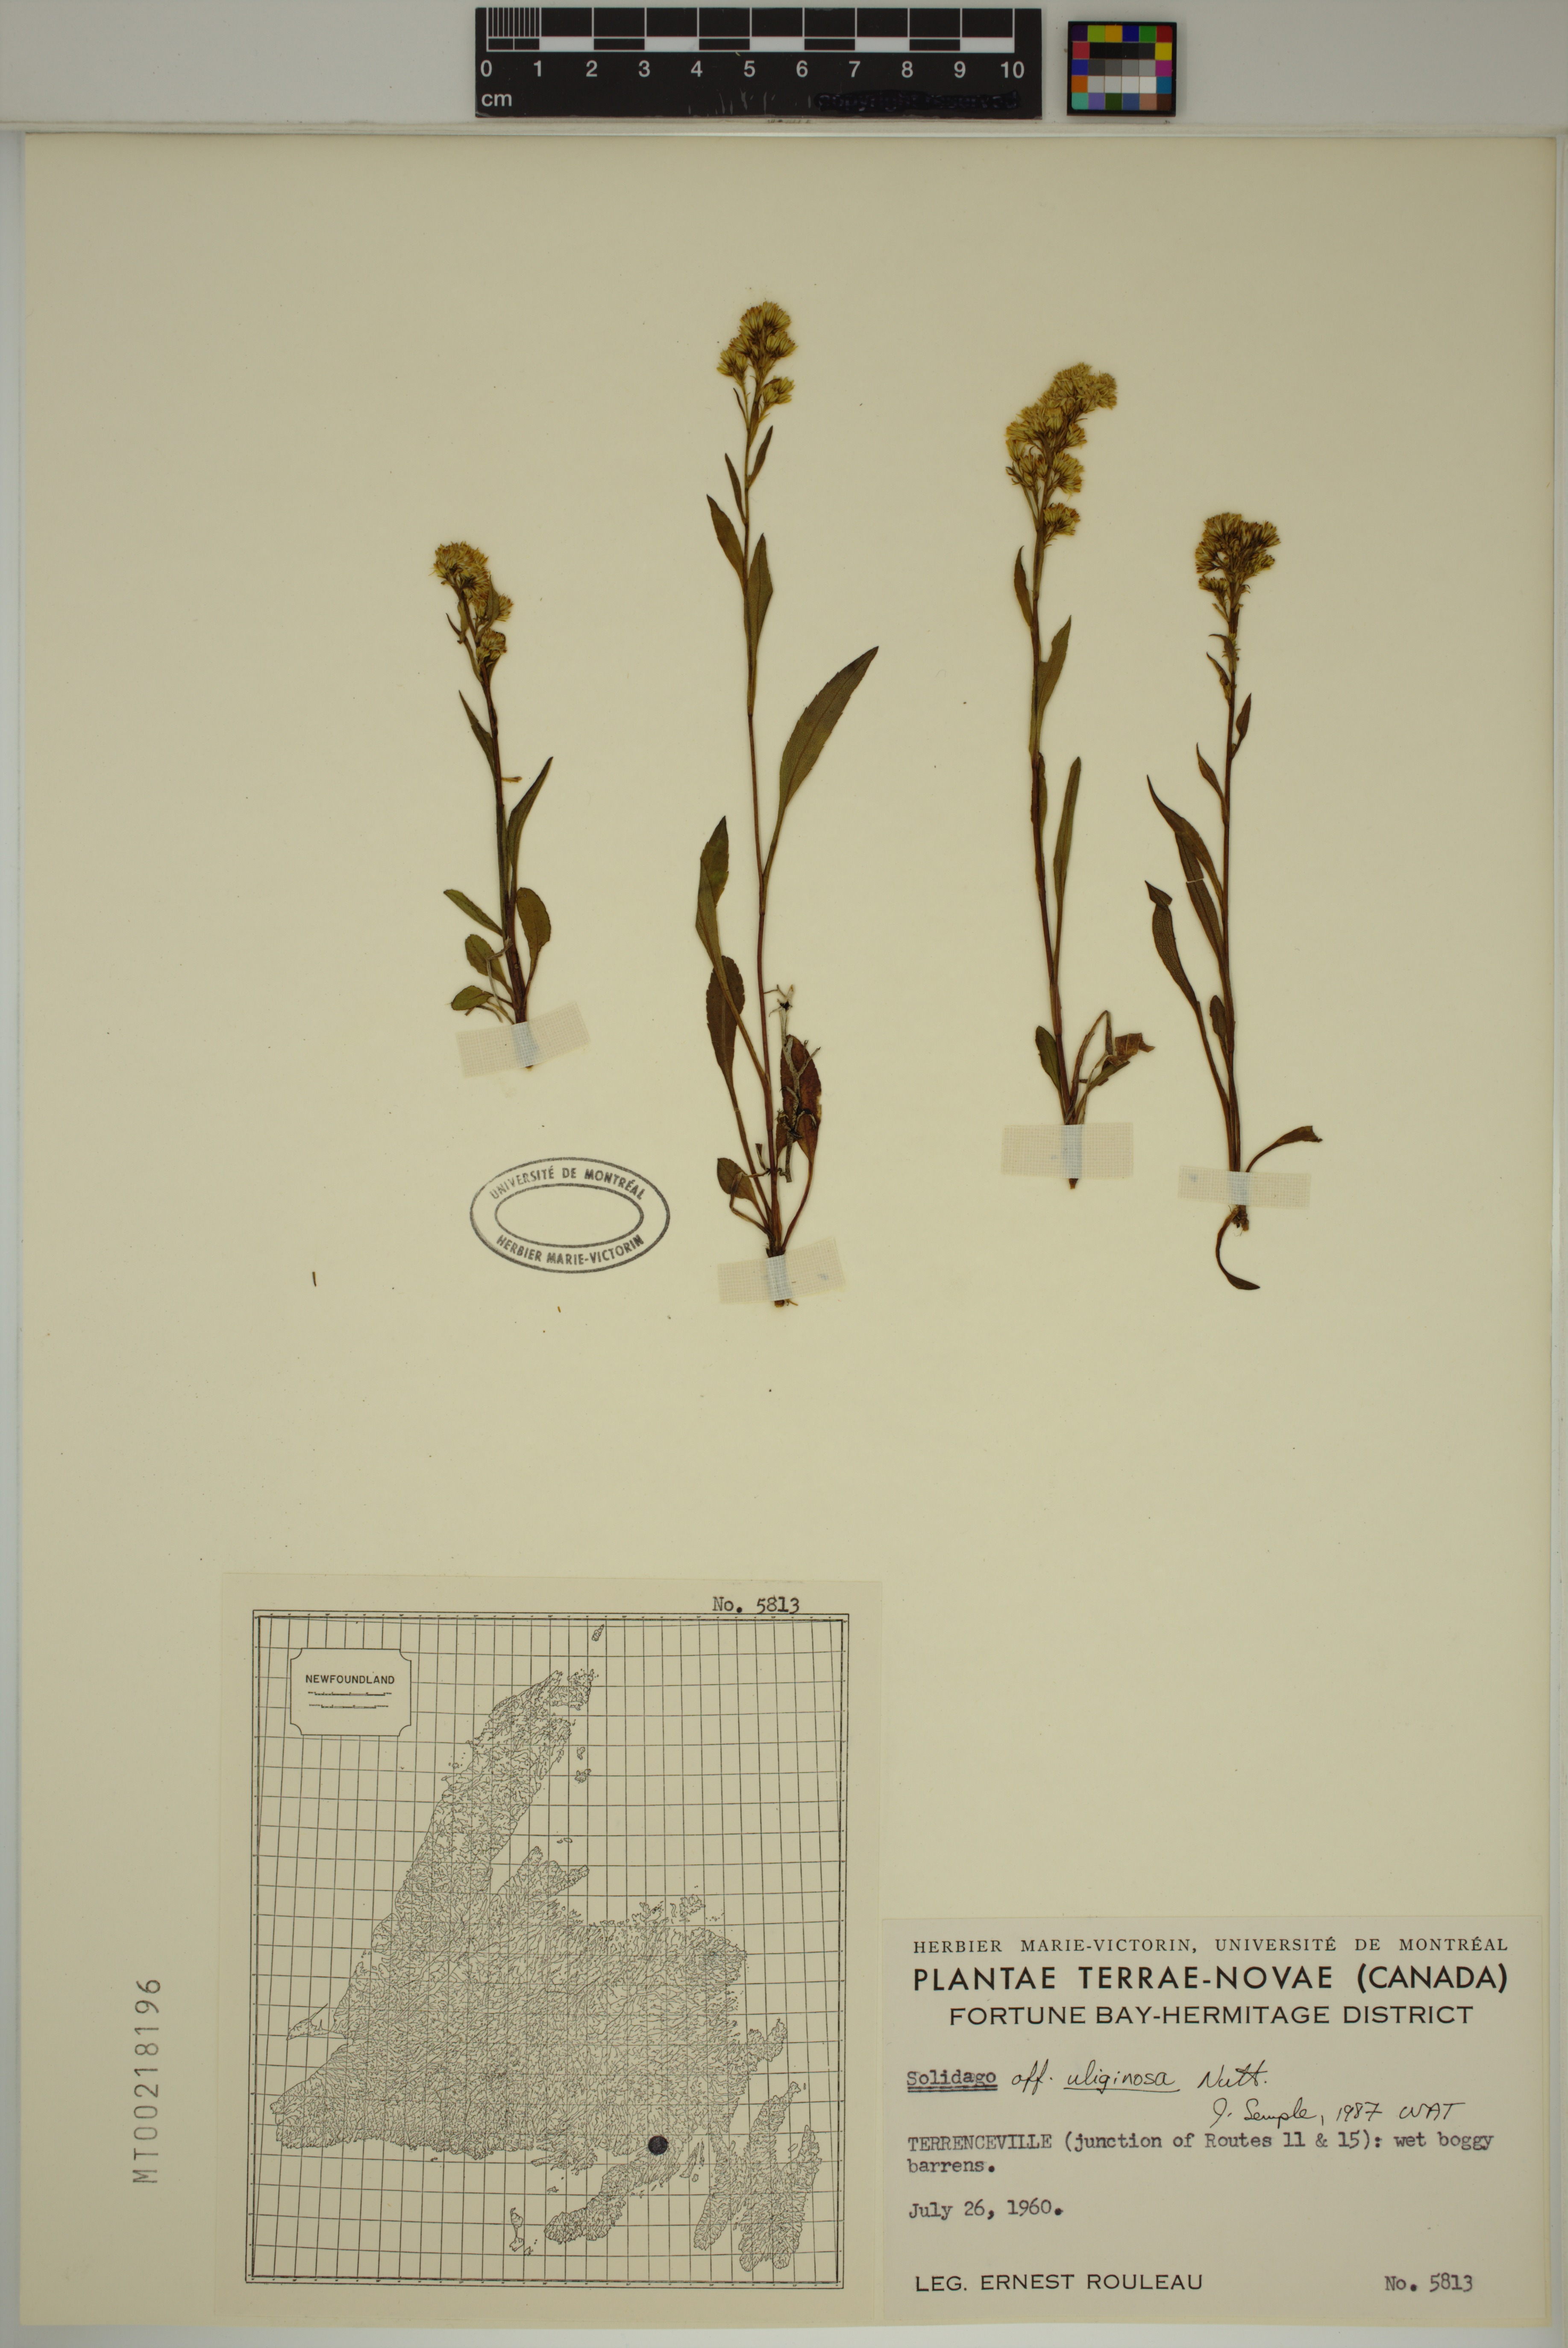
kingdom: Plantae
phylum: Tracheophyta
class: Magnoliopsida
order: Asterales
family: Asteraceae
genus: Solidago
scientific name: Solidago uliginosa
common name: Bog goldenrod
